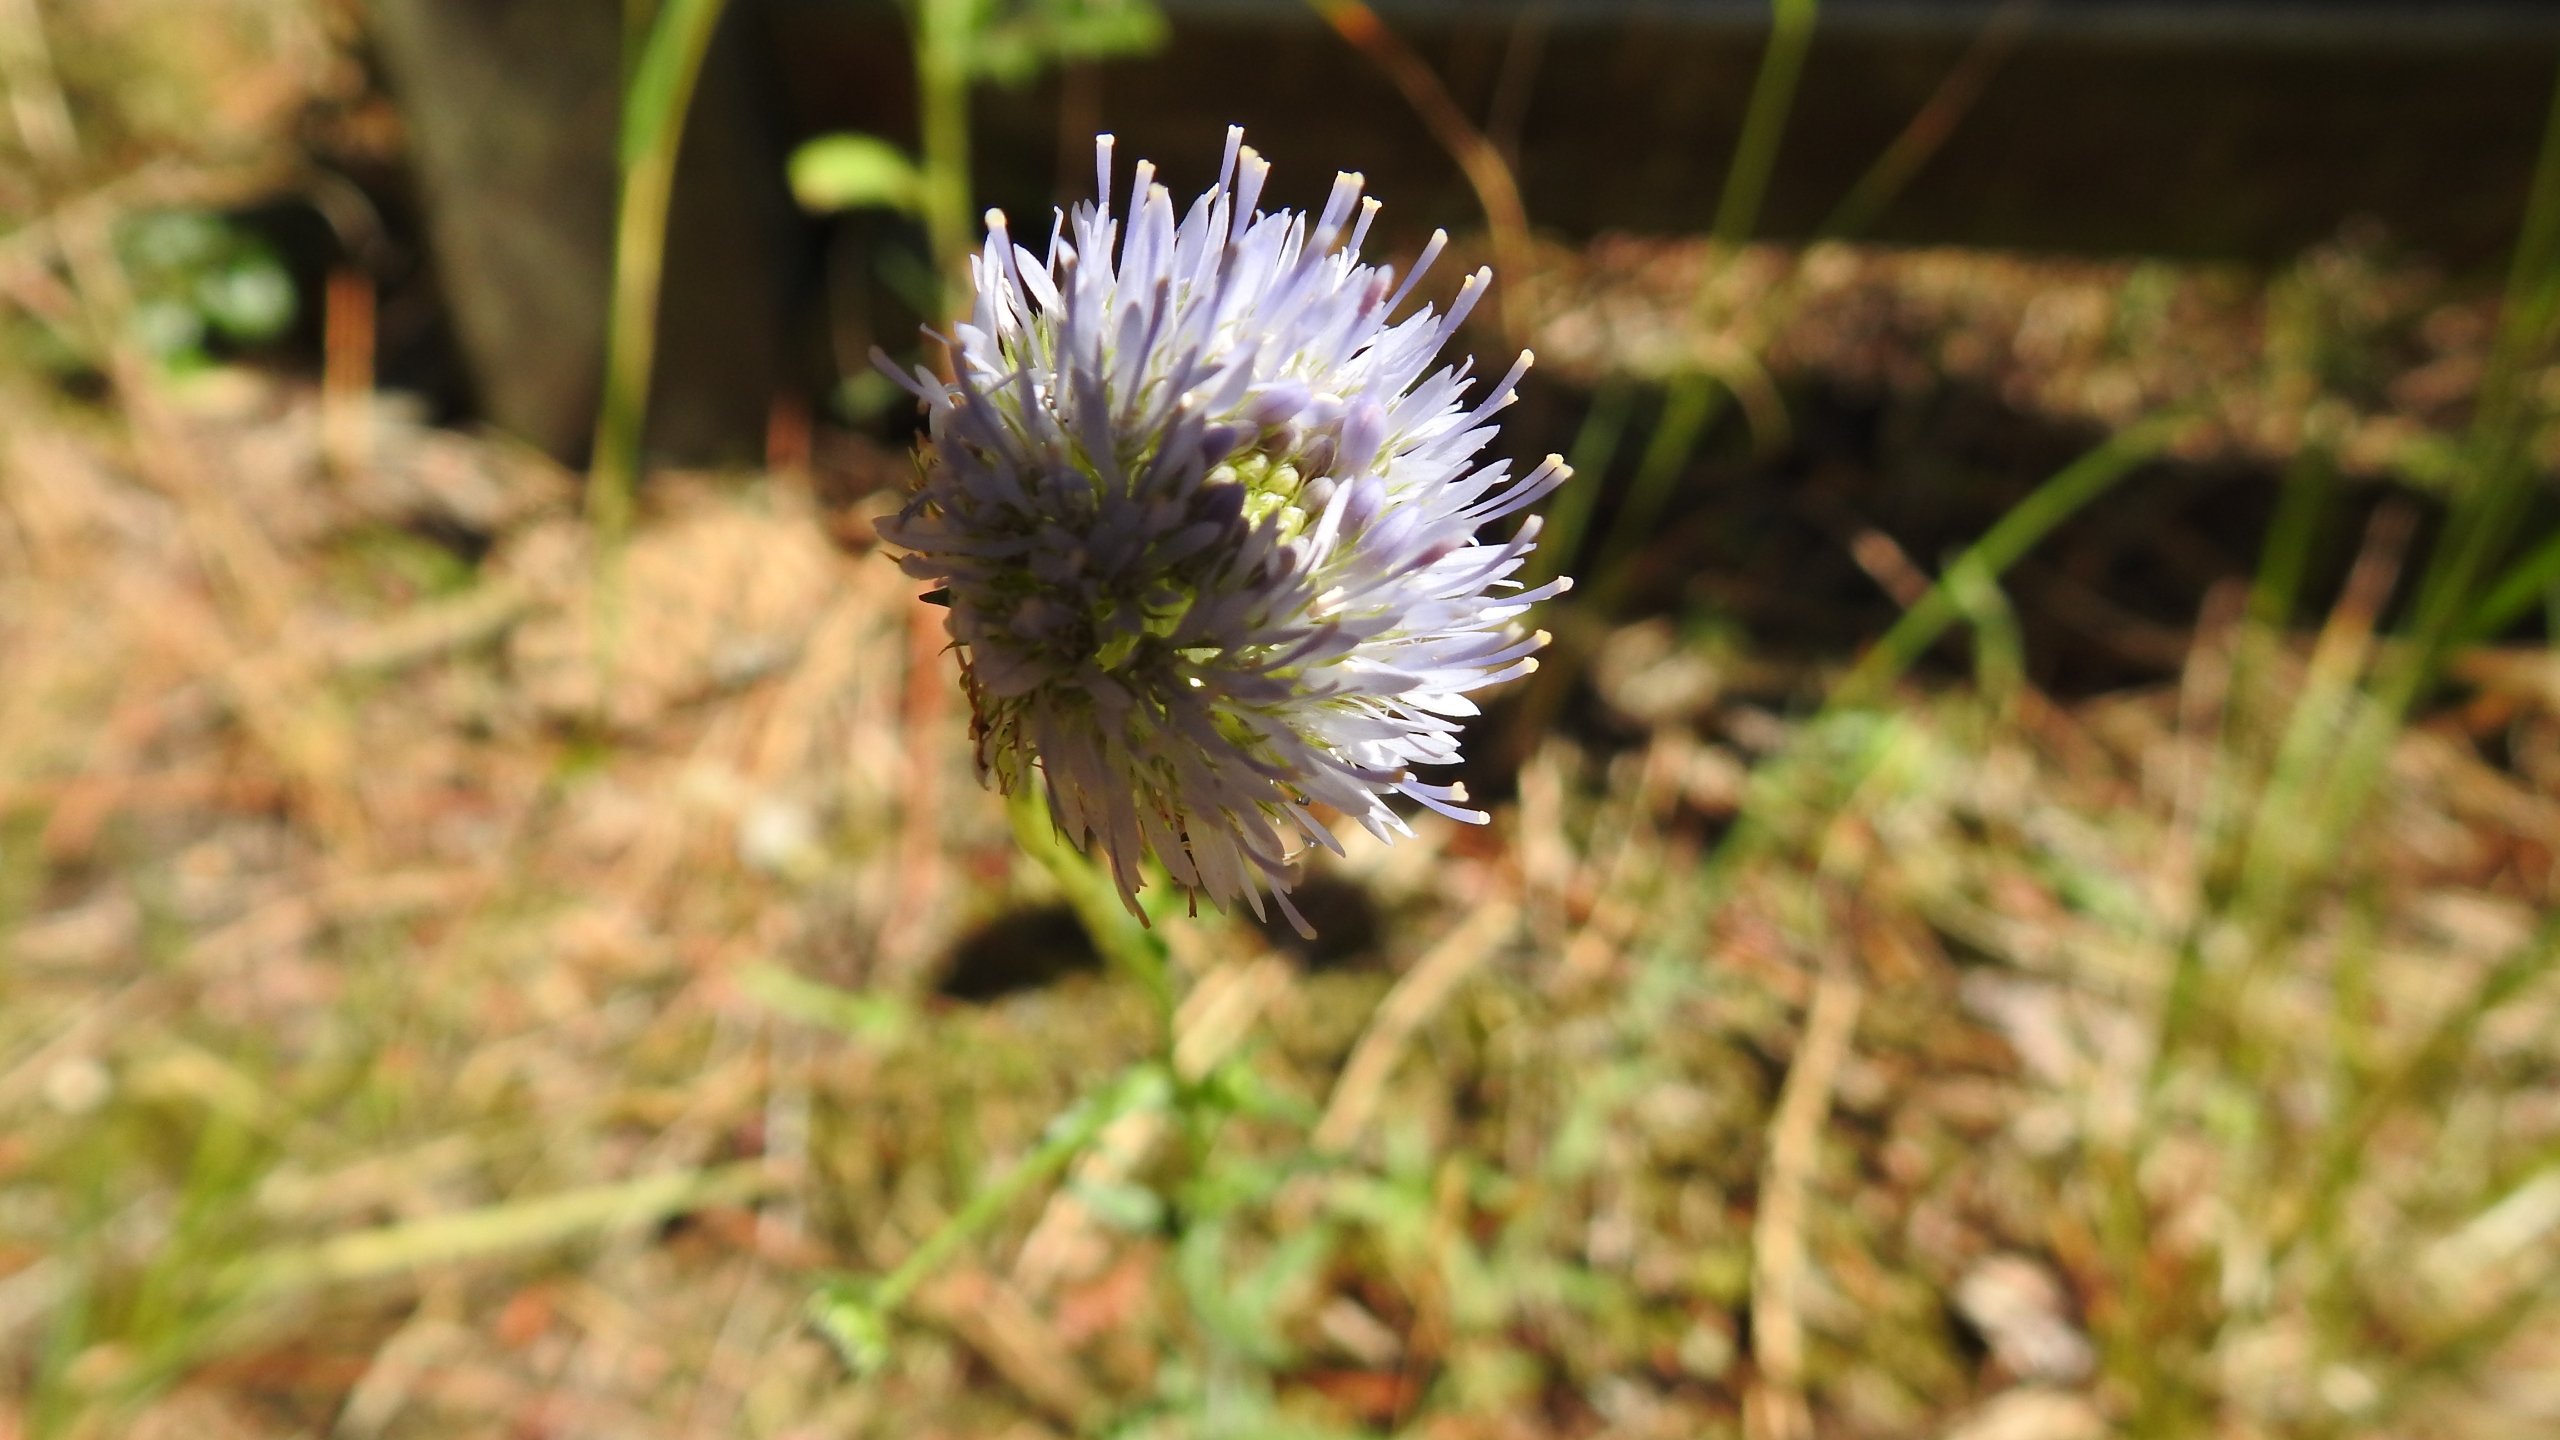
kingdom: Plantae
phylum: Tracheophyta
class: Magnoliopsida
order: Asterales
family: Campanulaceae
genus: Jasione
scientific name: Jasione montana
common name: Blåmunke
